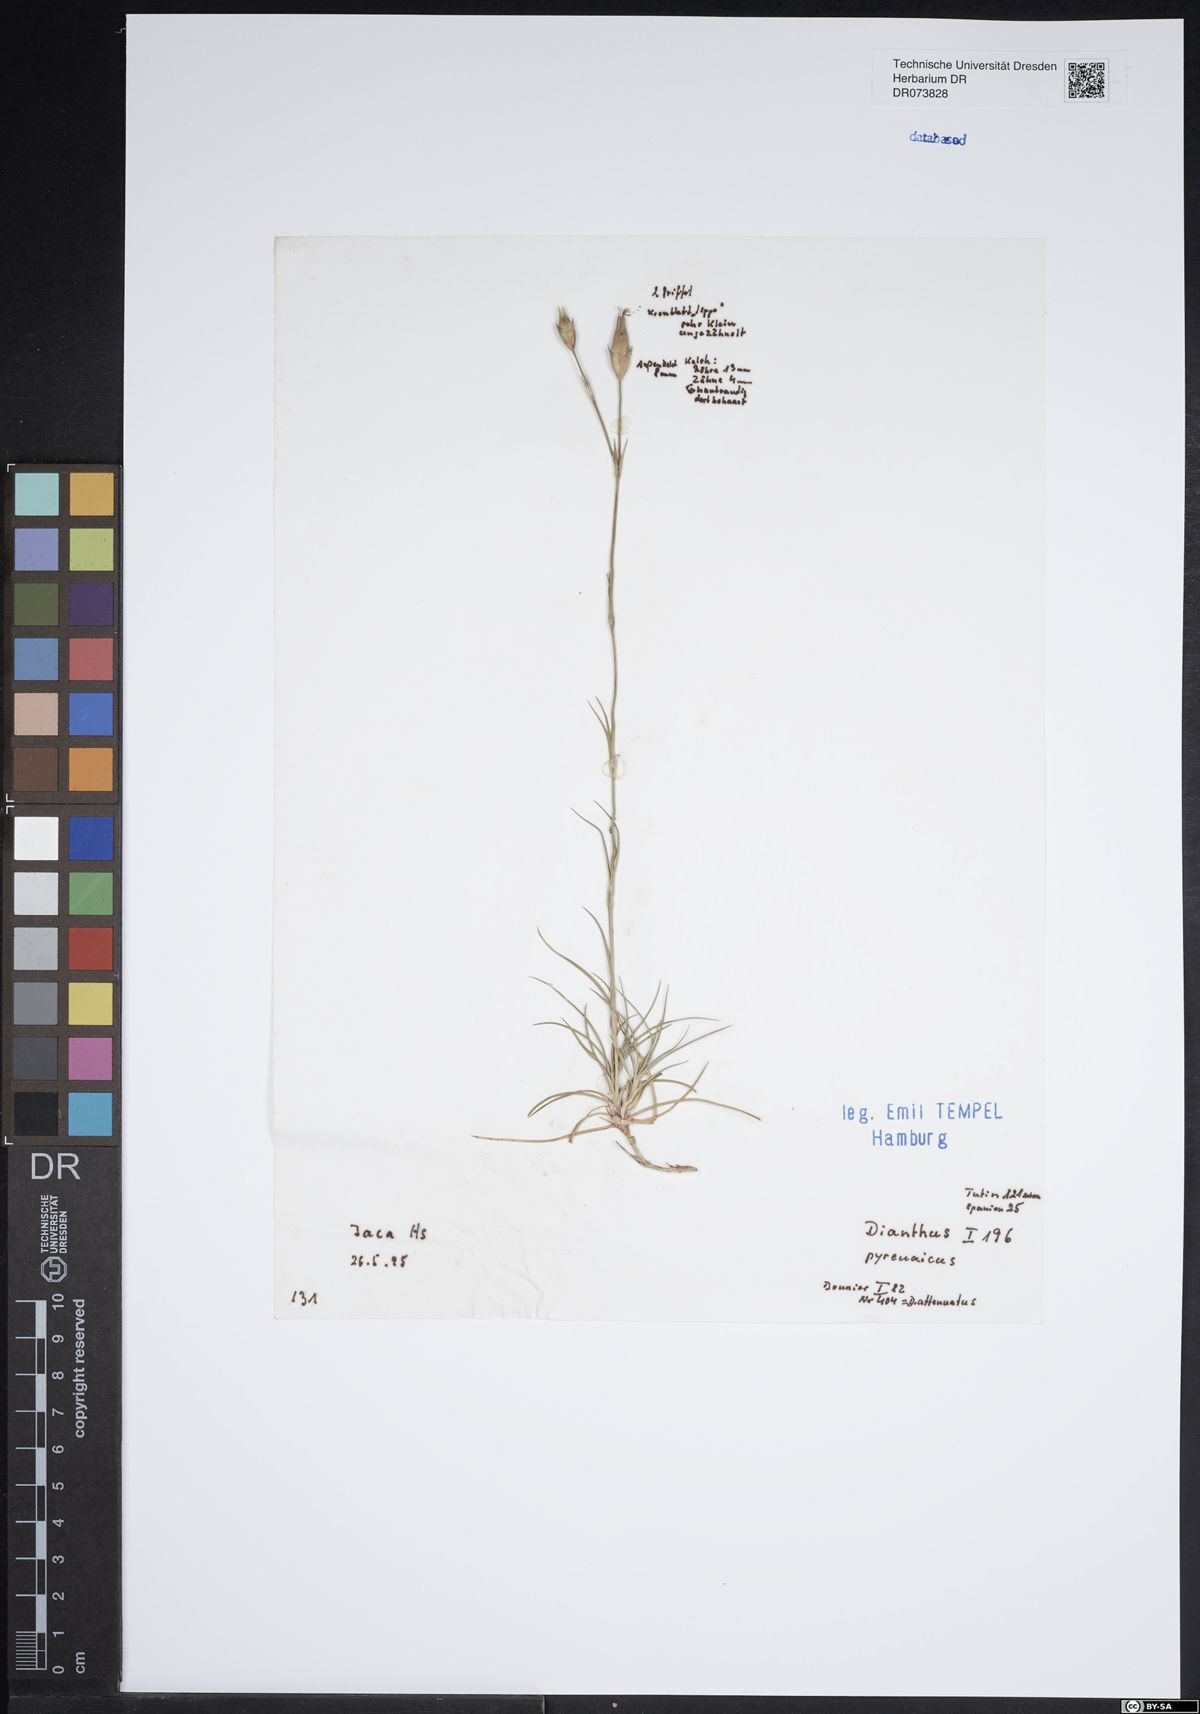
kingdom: Plantae
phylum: Tracheophyta
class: Magnoliopsida
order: Caryophyllales
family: Caryophyllaceae
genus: Dianthus
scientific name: Dianthus pyrenaicus
